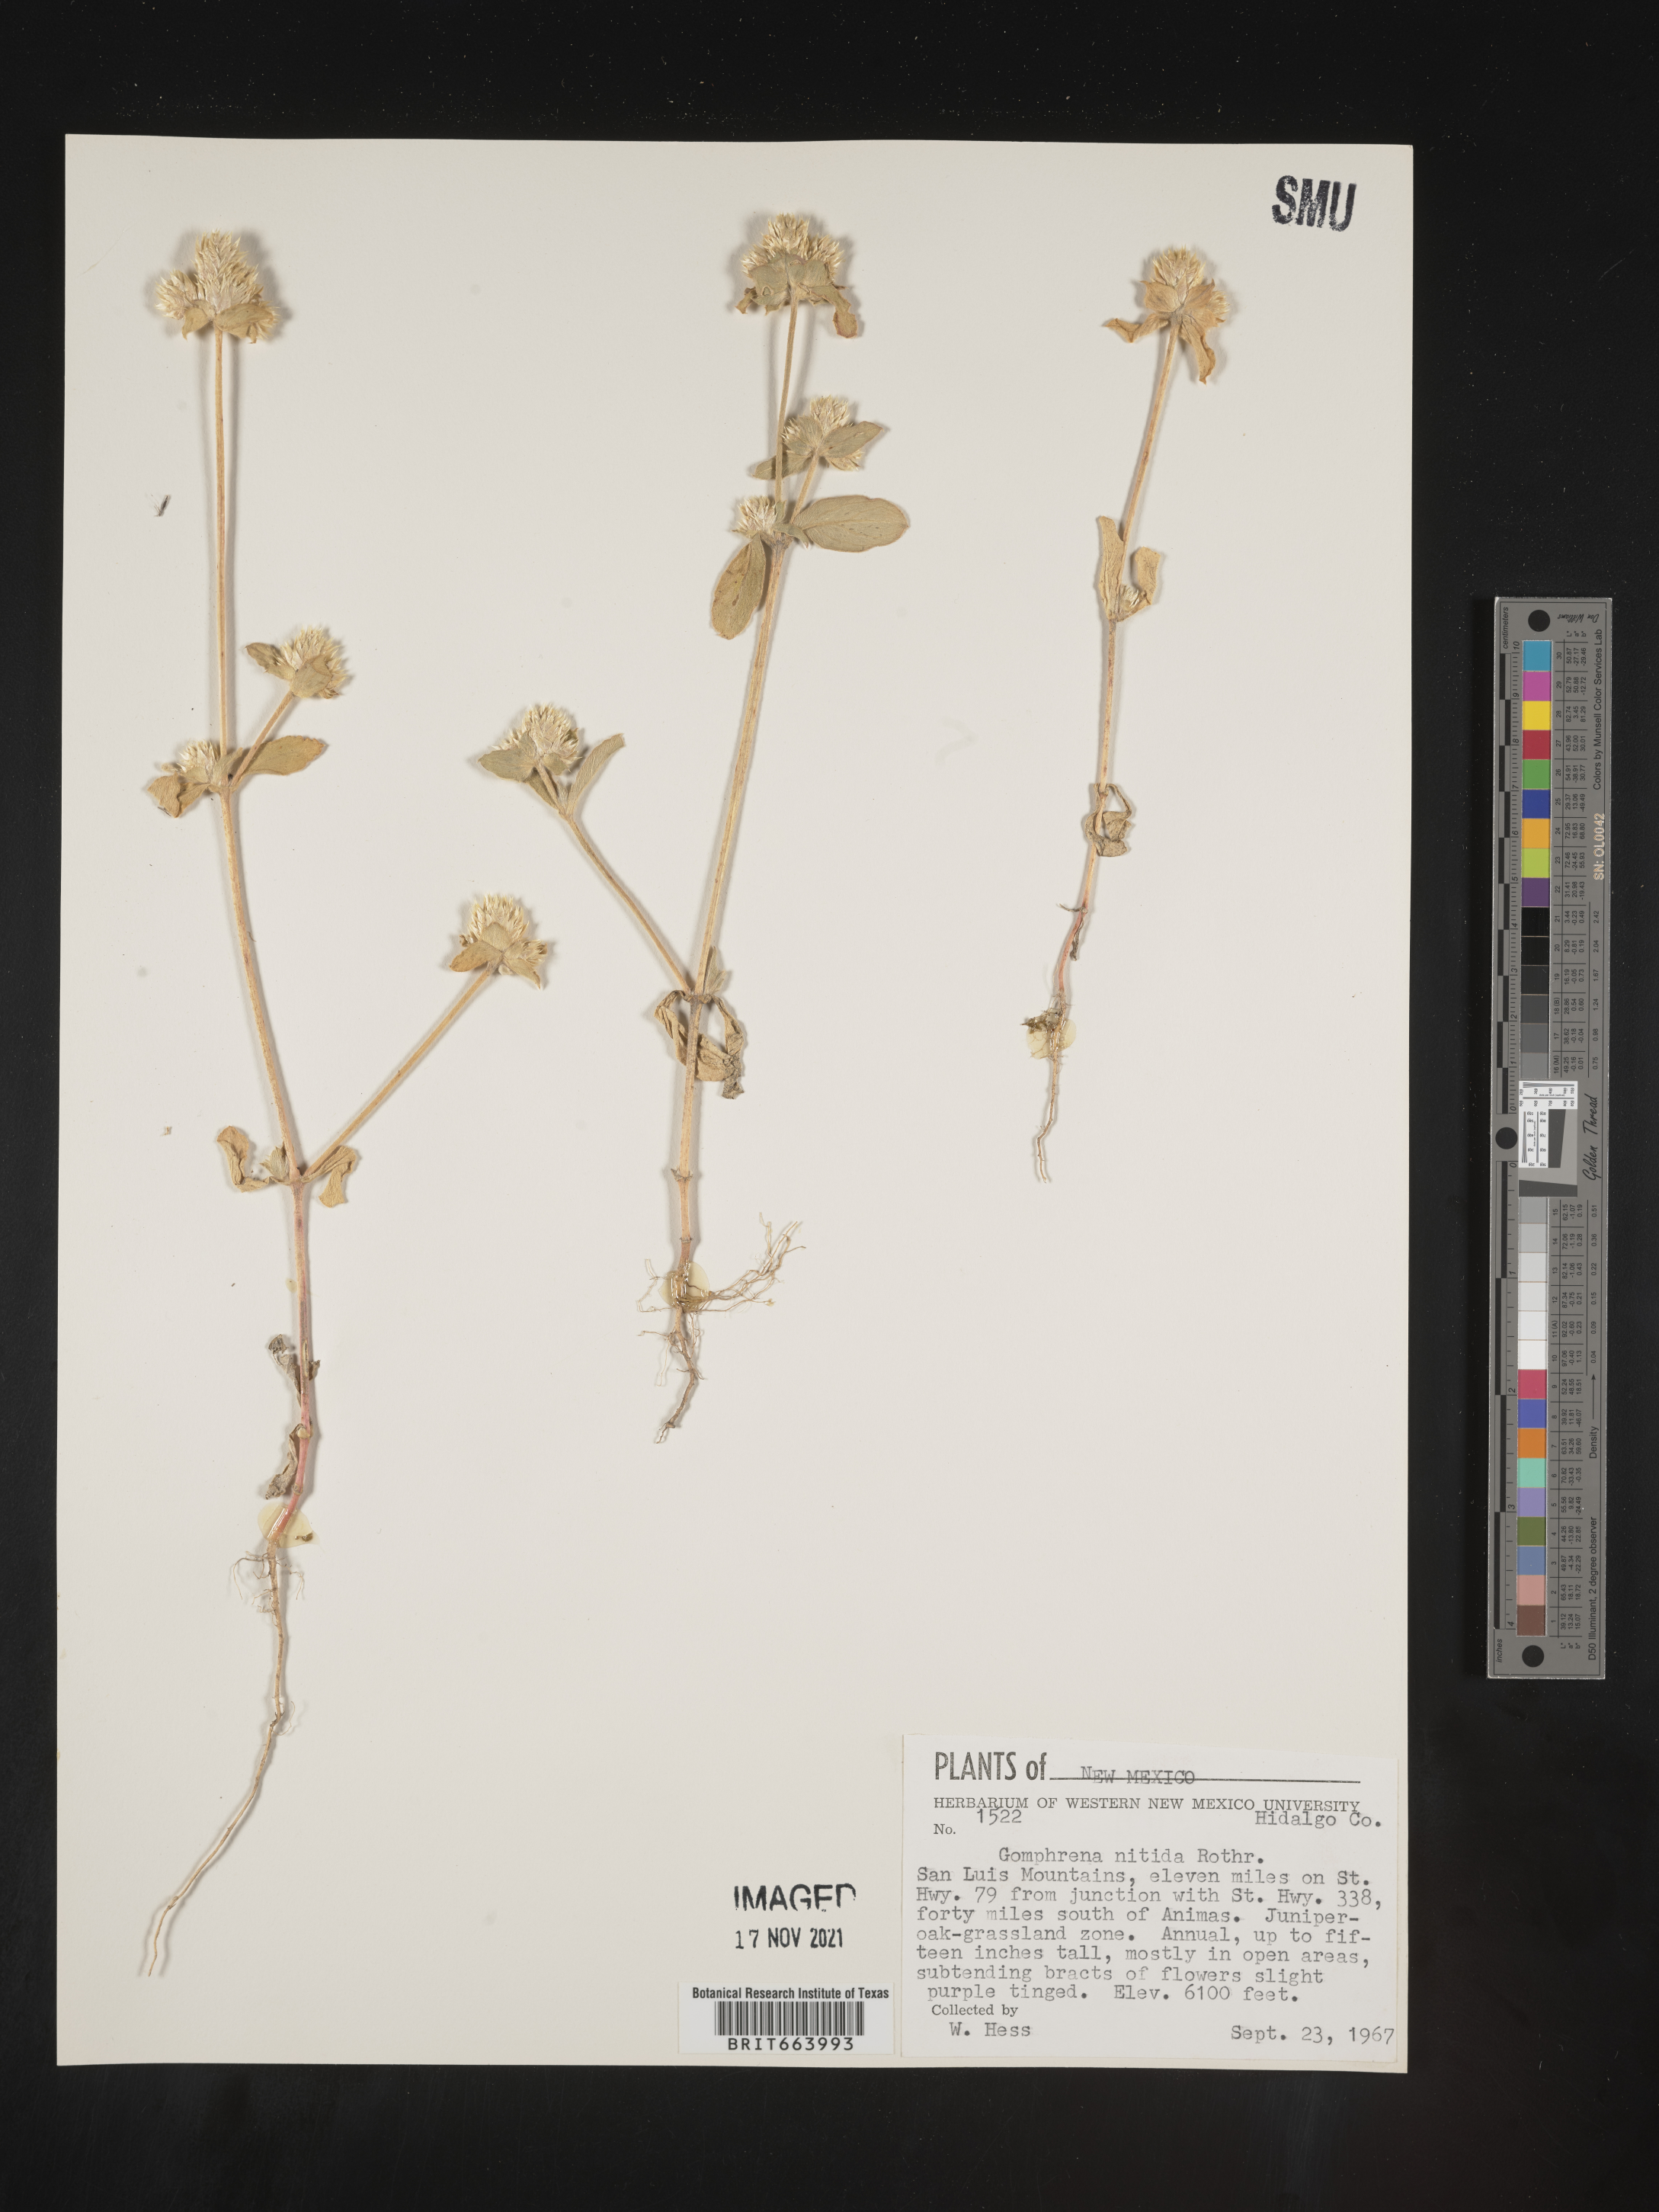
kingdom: Plantae
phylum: Tracheophyta
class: Magnoliopsida
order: Caryophyllales
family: Amaranthaceae
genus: Gomphrena
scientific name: Gomphrena
